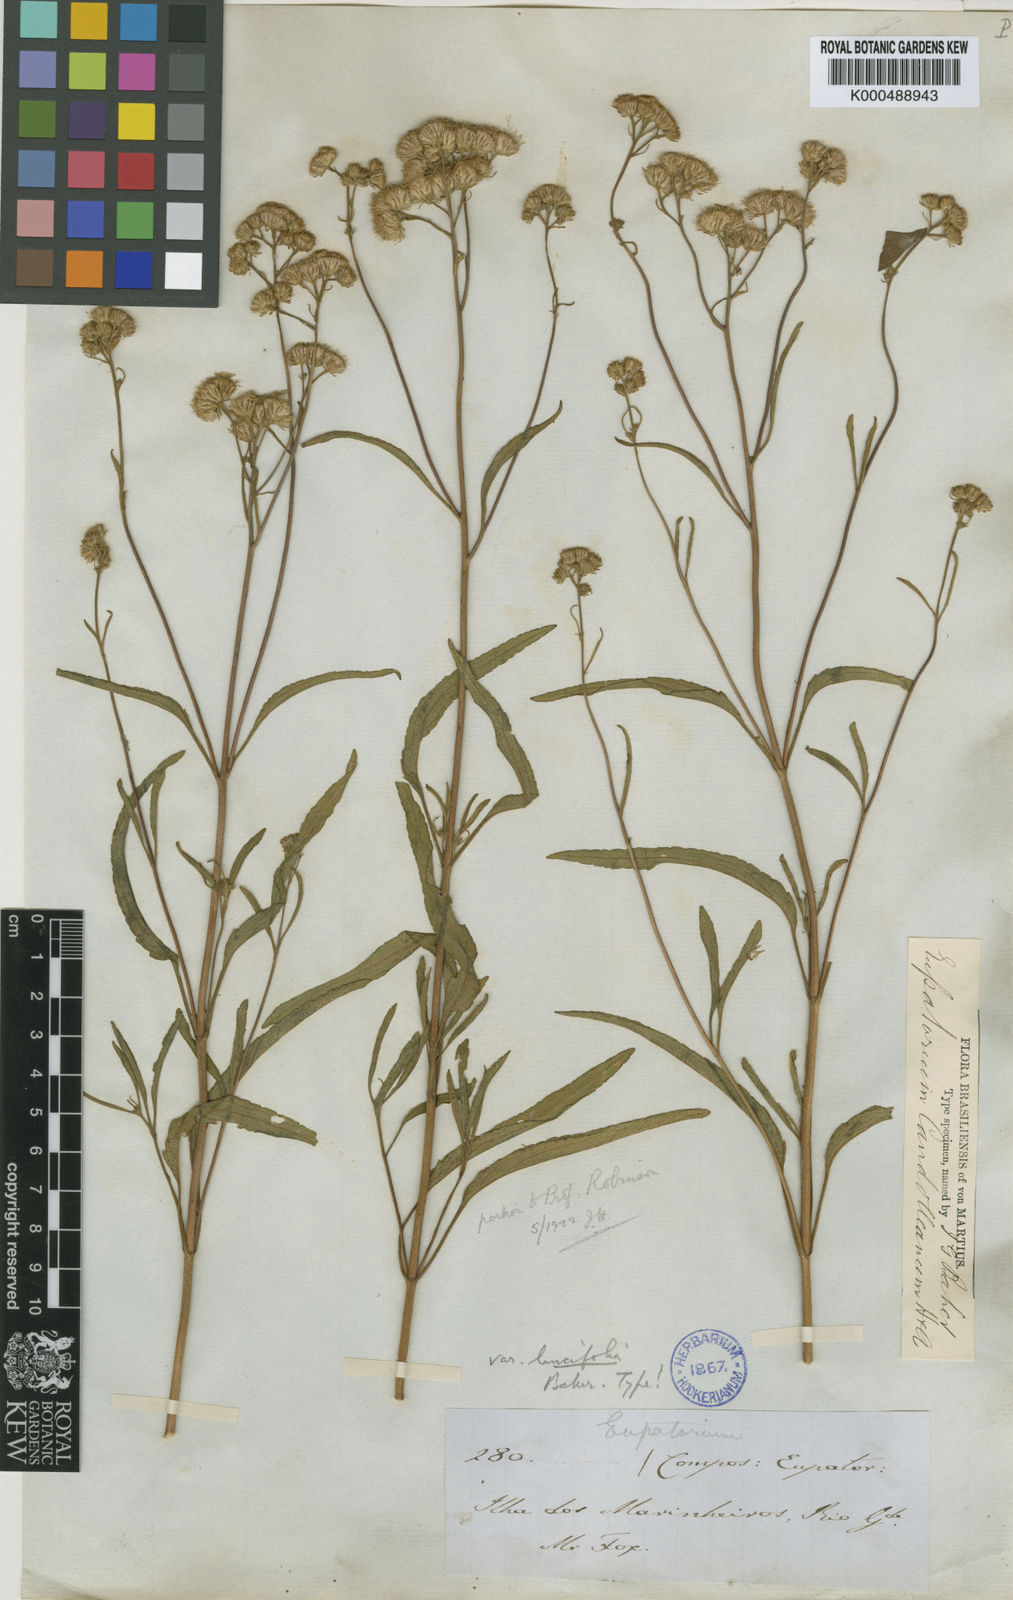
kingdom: Plantae
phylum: Tracheophyta
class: Magnoliopsida
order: Asterales
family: Asteraceae
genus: Barrosoa
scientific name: Barrosoa candolleana
